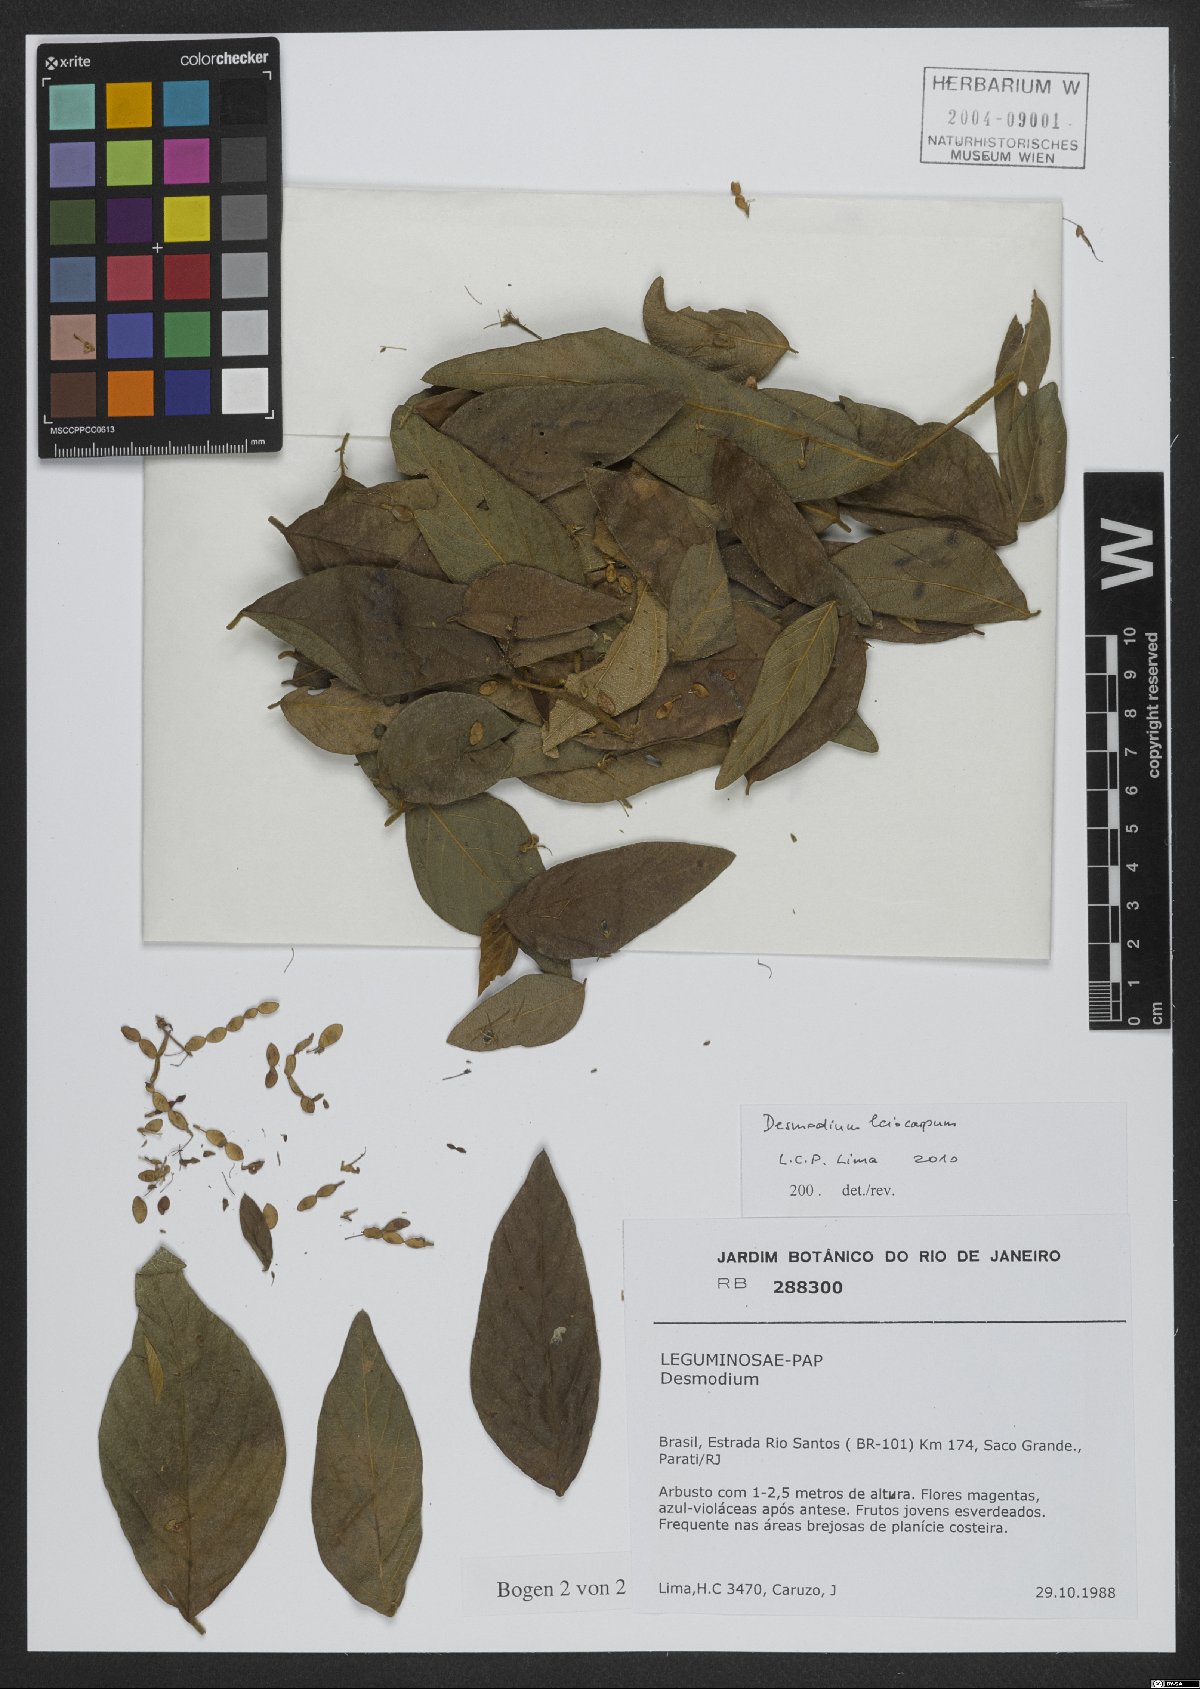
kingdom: Plantae
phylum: Tracheophyta
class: Magnoliopsida
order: Fabales
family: Fabaceae
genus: Desmodium
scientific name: Desmodium leiocarpum
